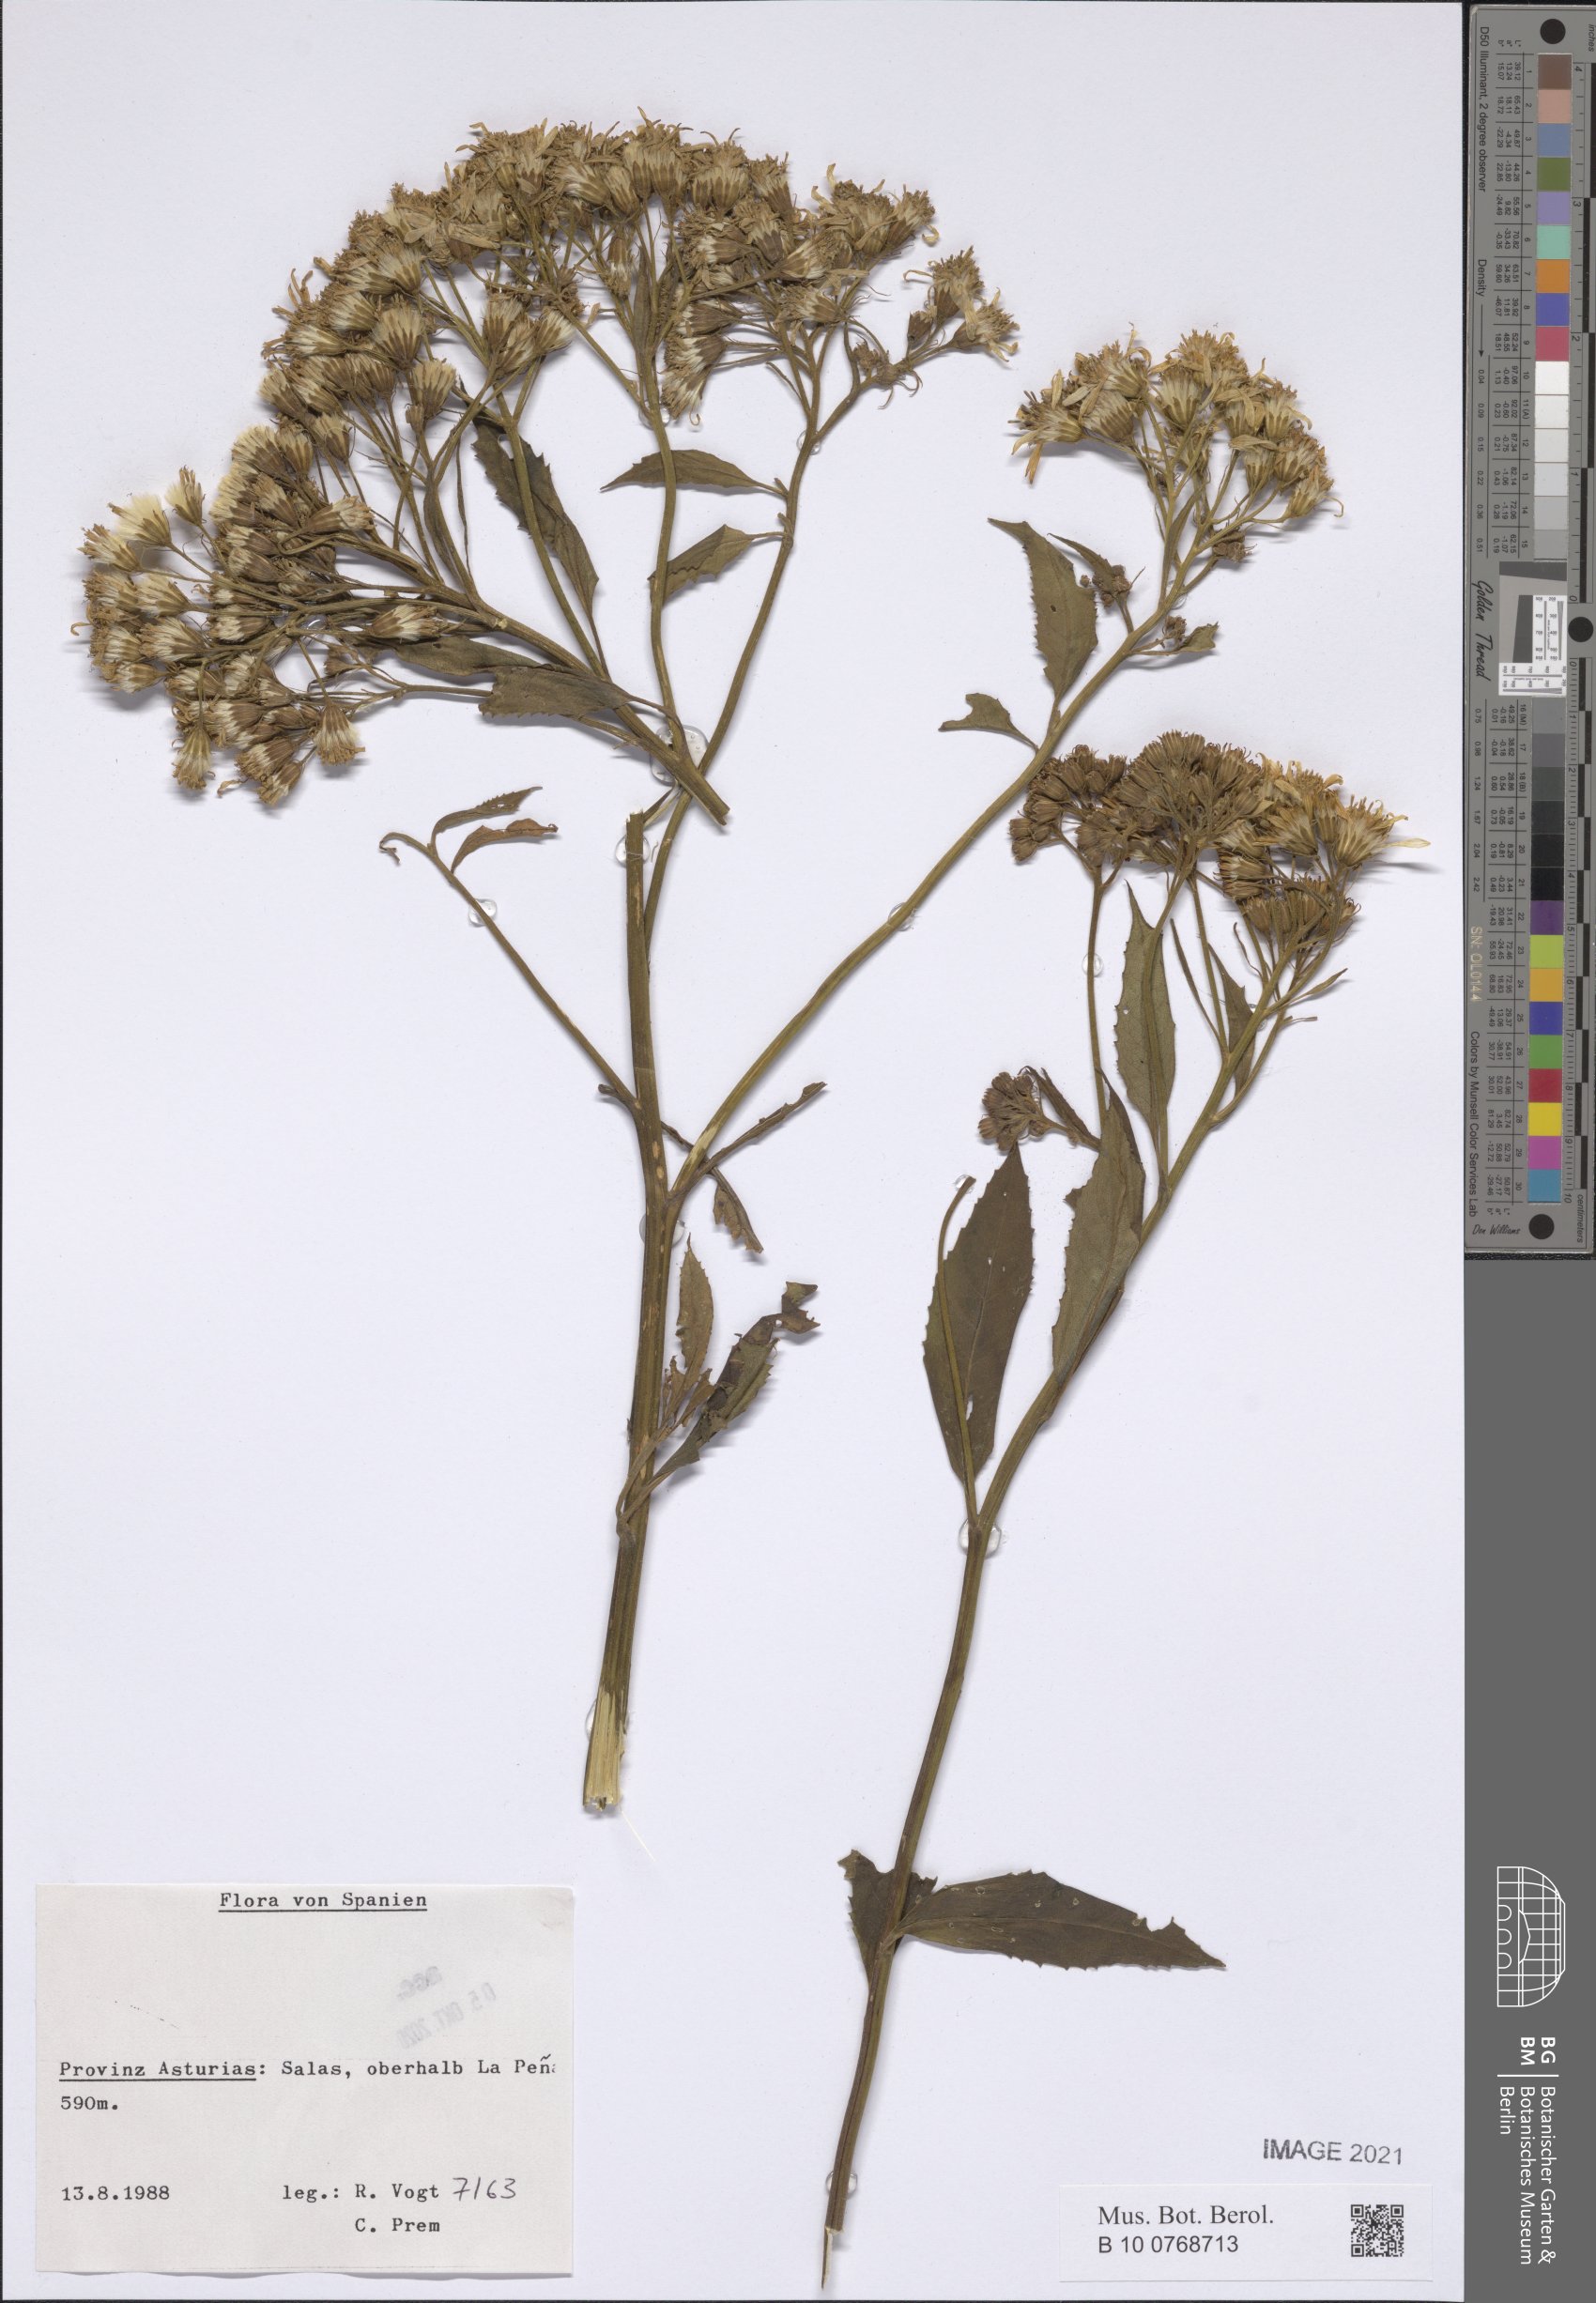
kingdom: Plantae
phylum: Tracheophyta
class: Magnoliopsida
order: Asterales
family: Asteraceae
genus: Senecio
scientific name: Senecio
